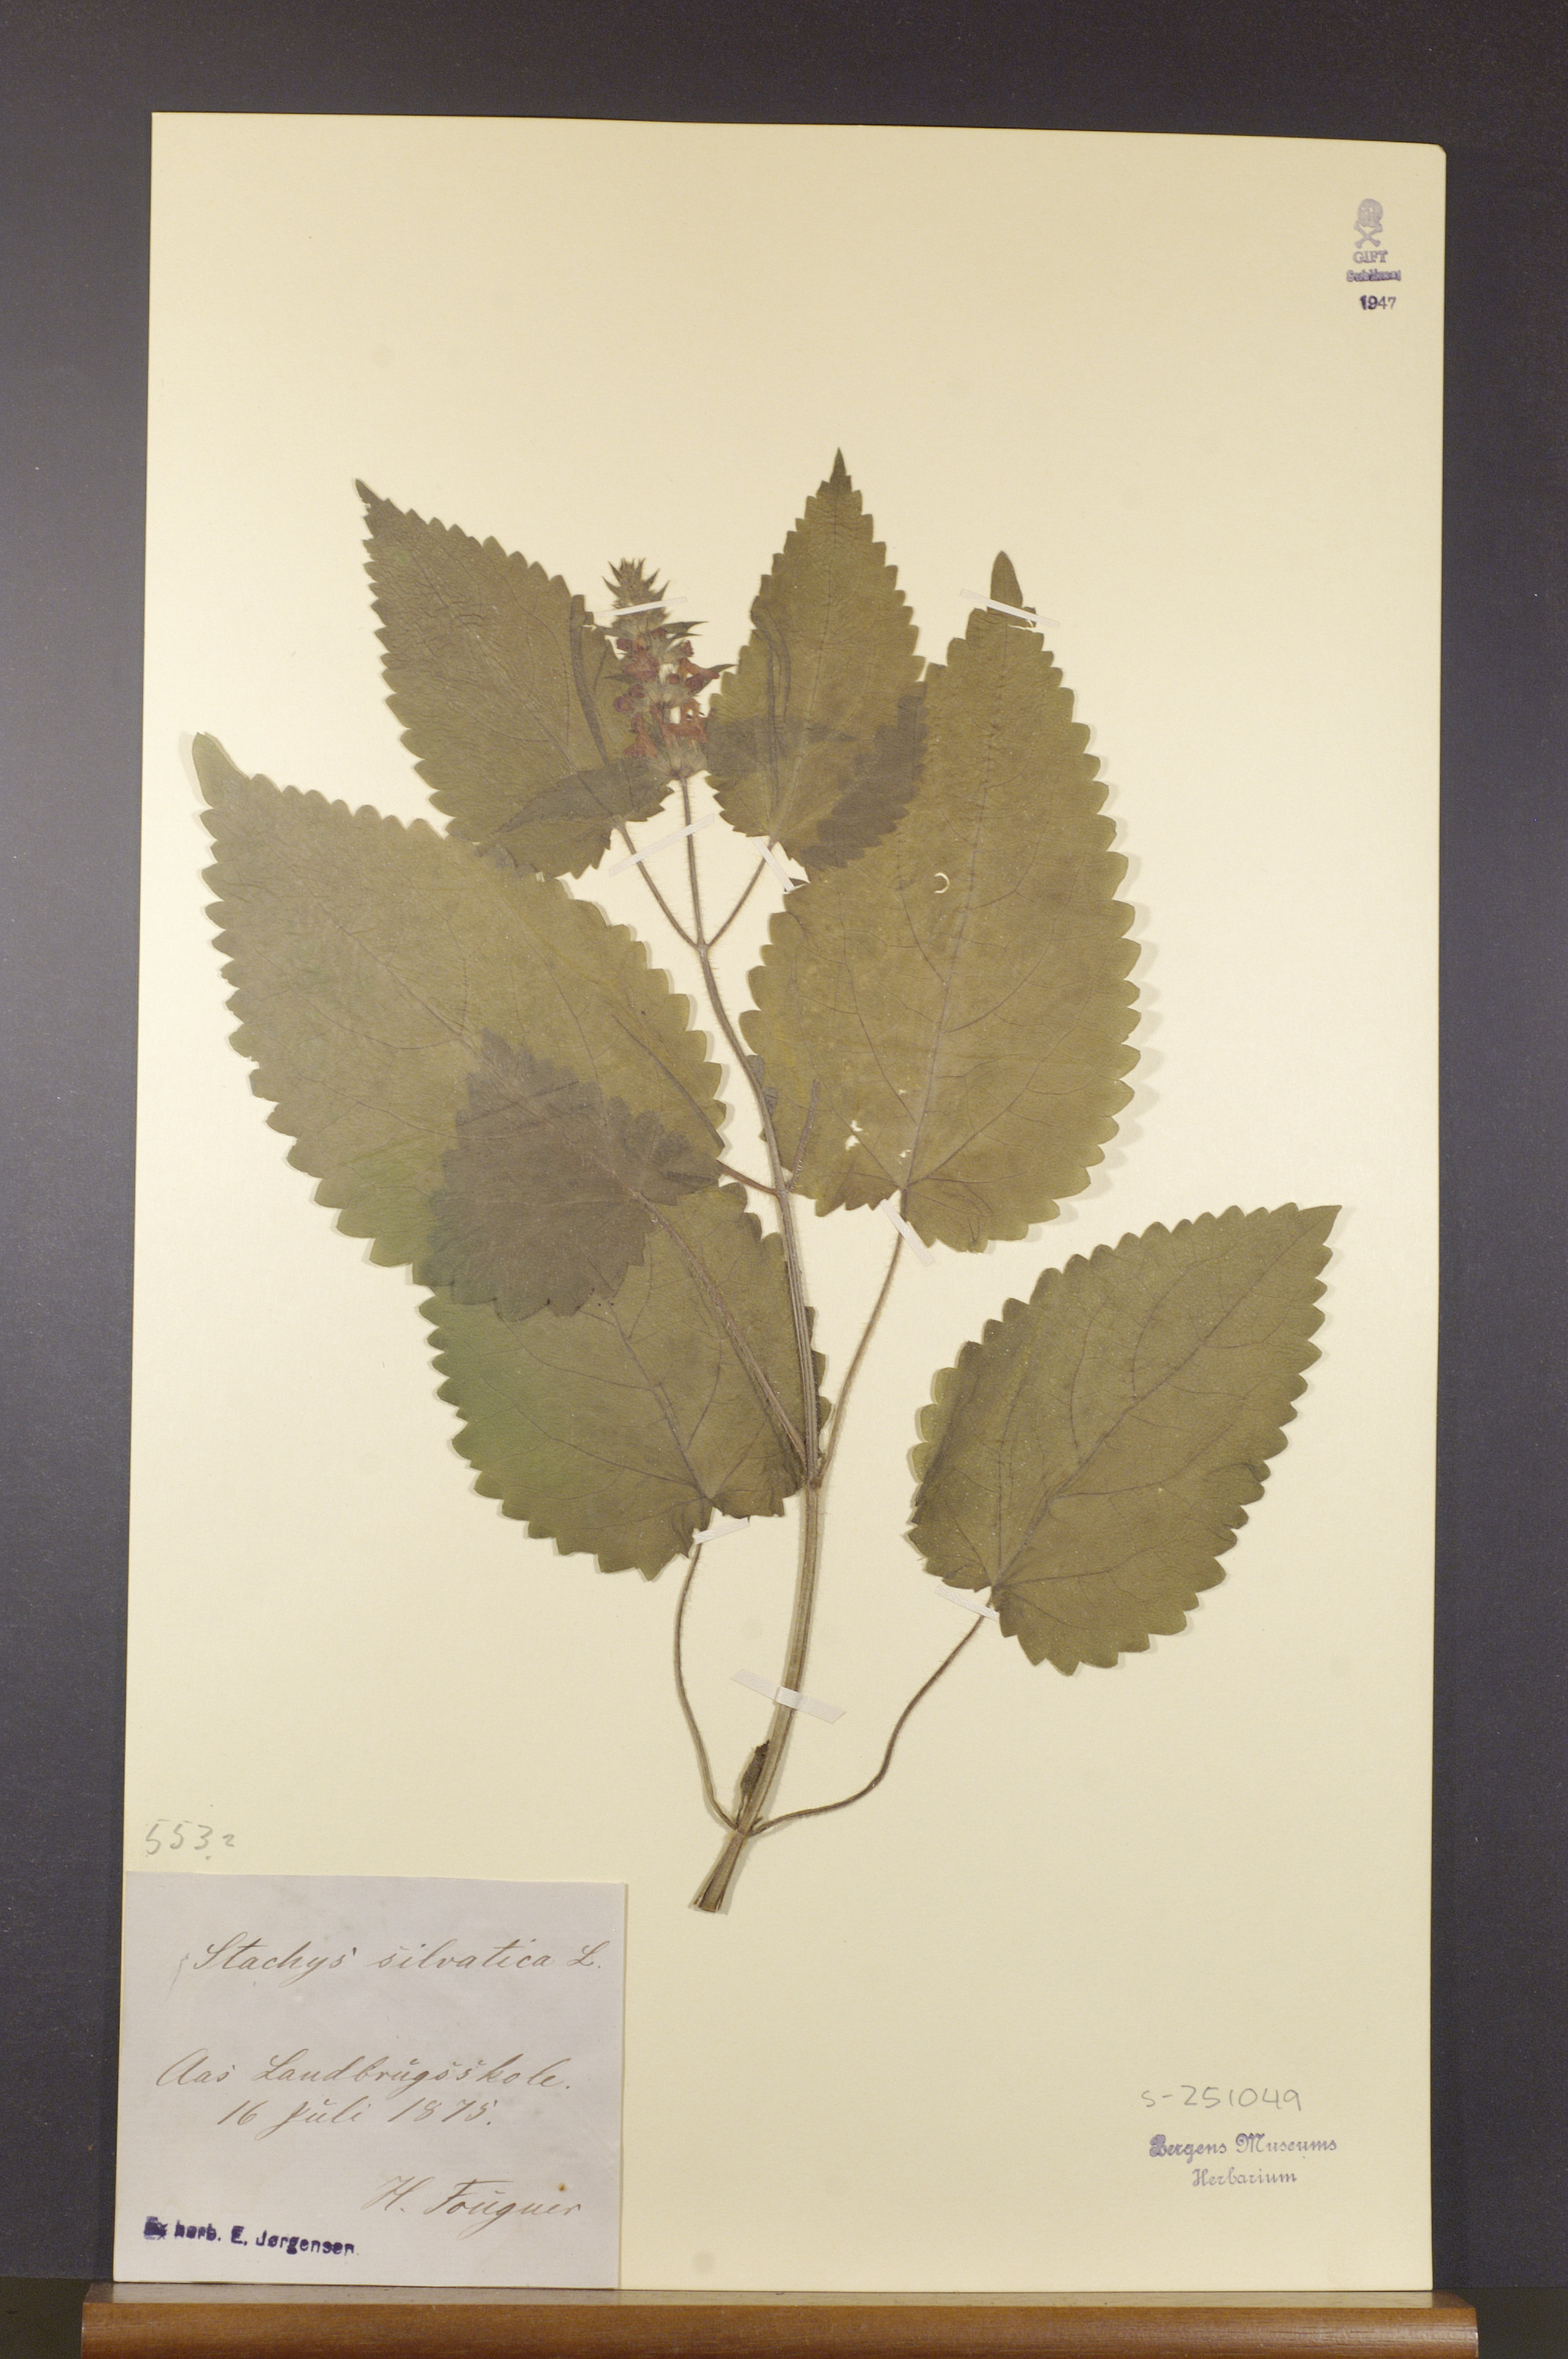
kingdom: Plantae
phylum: Tracheophyta
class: Magnoliopsida
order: Lamiales
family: Lamiaceae
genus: Stachys
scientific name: Stachys sylvatica
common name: Hedge woundwort
